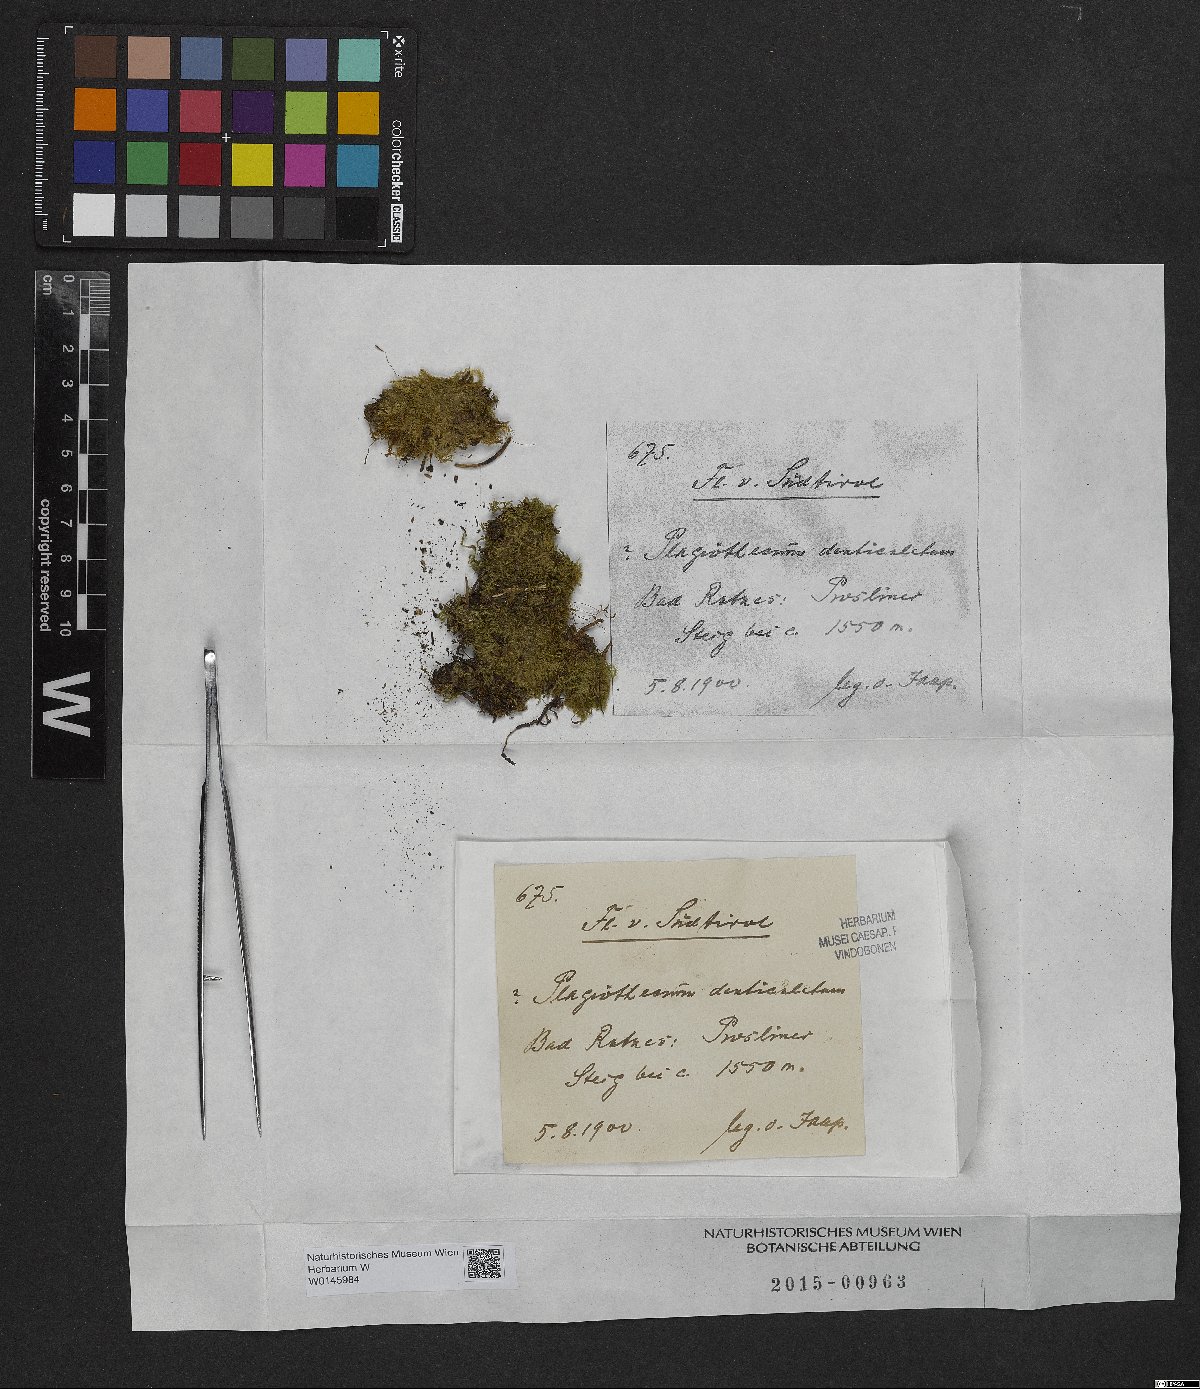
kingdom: Plantae
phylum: Bryophyta
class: Bryopsida
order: Hypnales
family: Plagiotheciaceae
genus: Plagiothecium
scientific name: Plagiothecium denticulatum
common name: Dented silk moss
